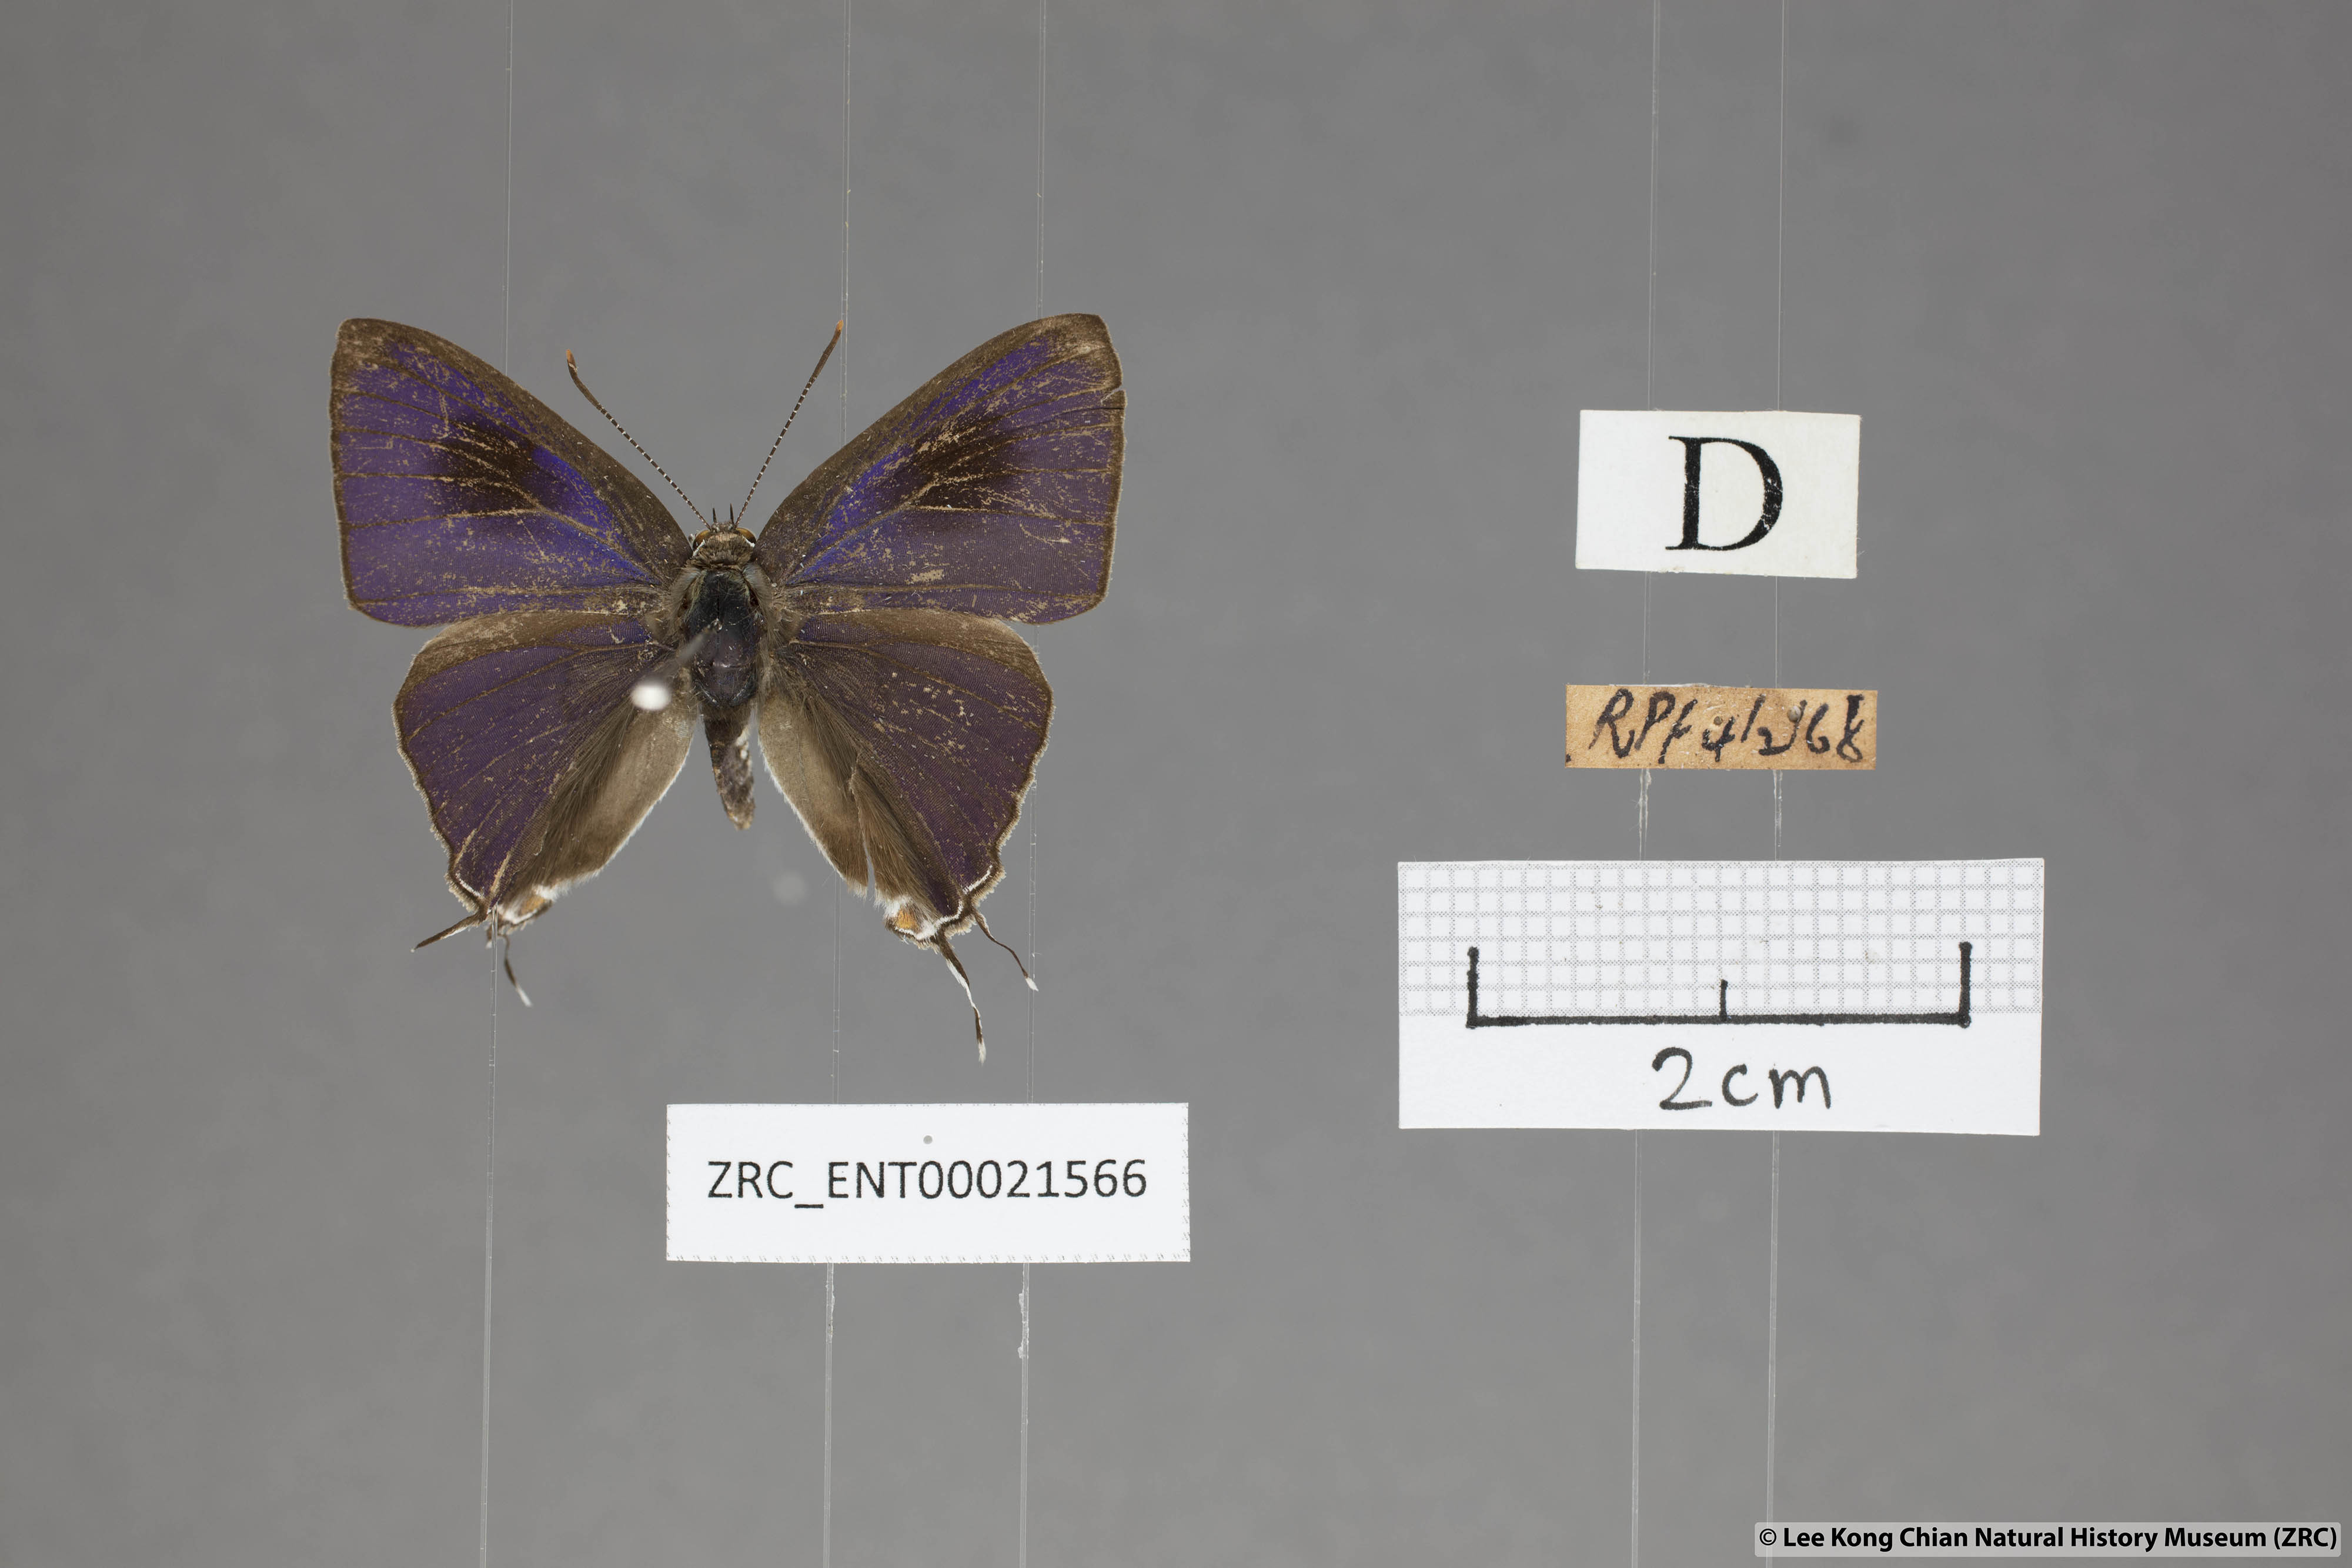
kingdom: Animalia
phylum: Arthropoda
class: Insecta
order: Lepidoptera
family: Lycaenidae
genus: Hypolycaena
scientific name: Hypolycaena erylus
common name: Common tit
